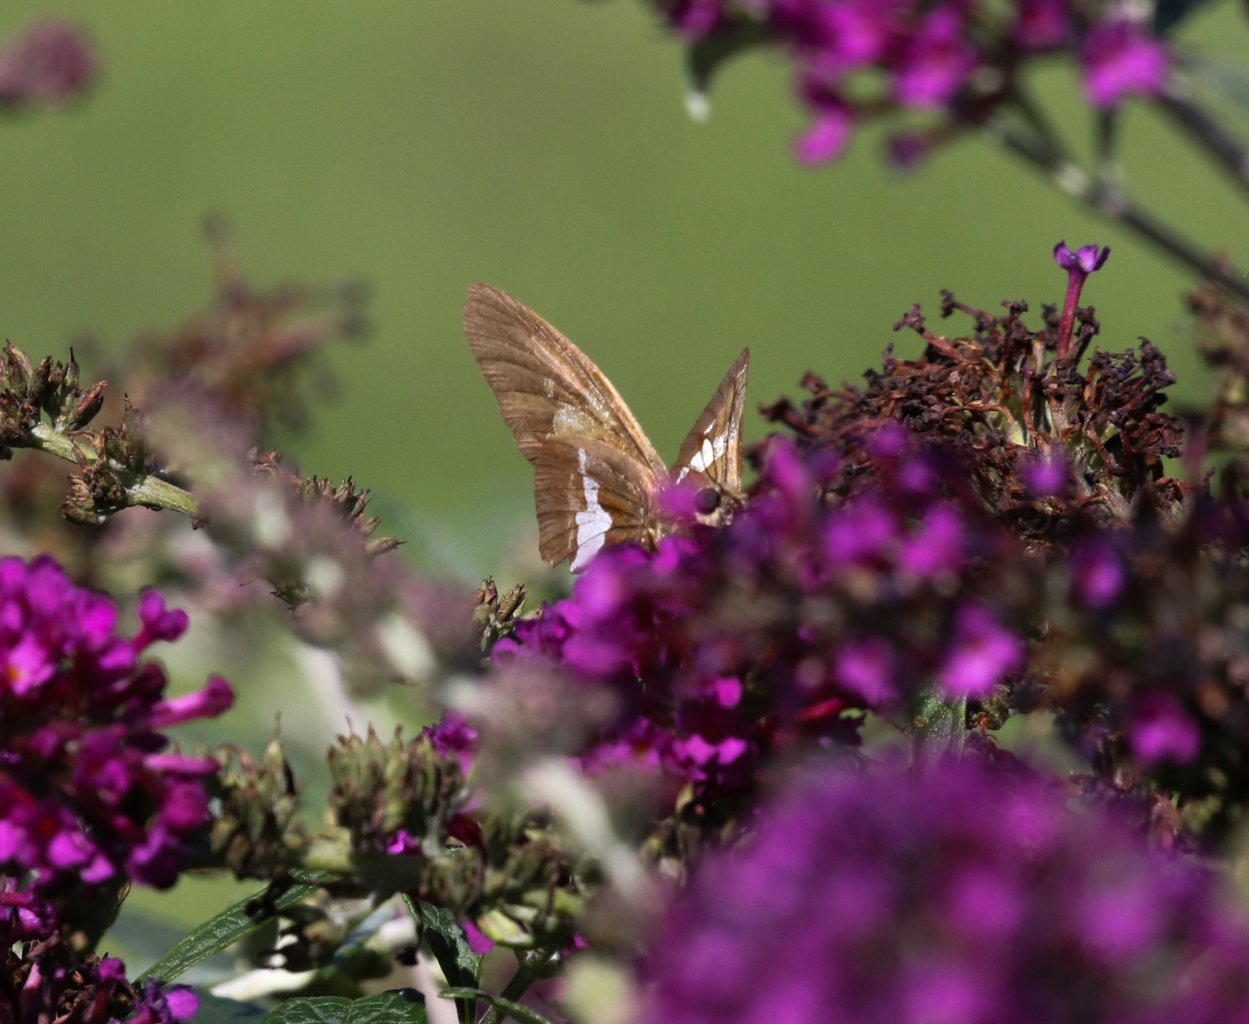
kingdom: Animalia
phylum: Arthropoda
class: Insecta
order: Lepidoptera
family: Hesperiidae
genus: Epargyreus
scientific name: Epargyreus clarus
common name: Silver-spotted Skipper
